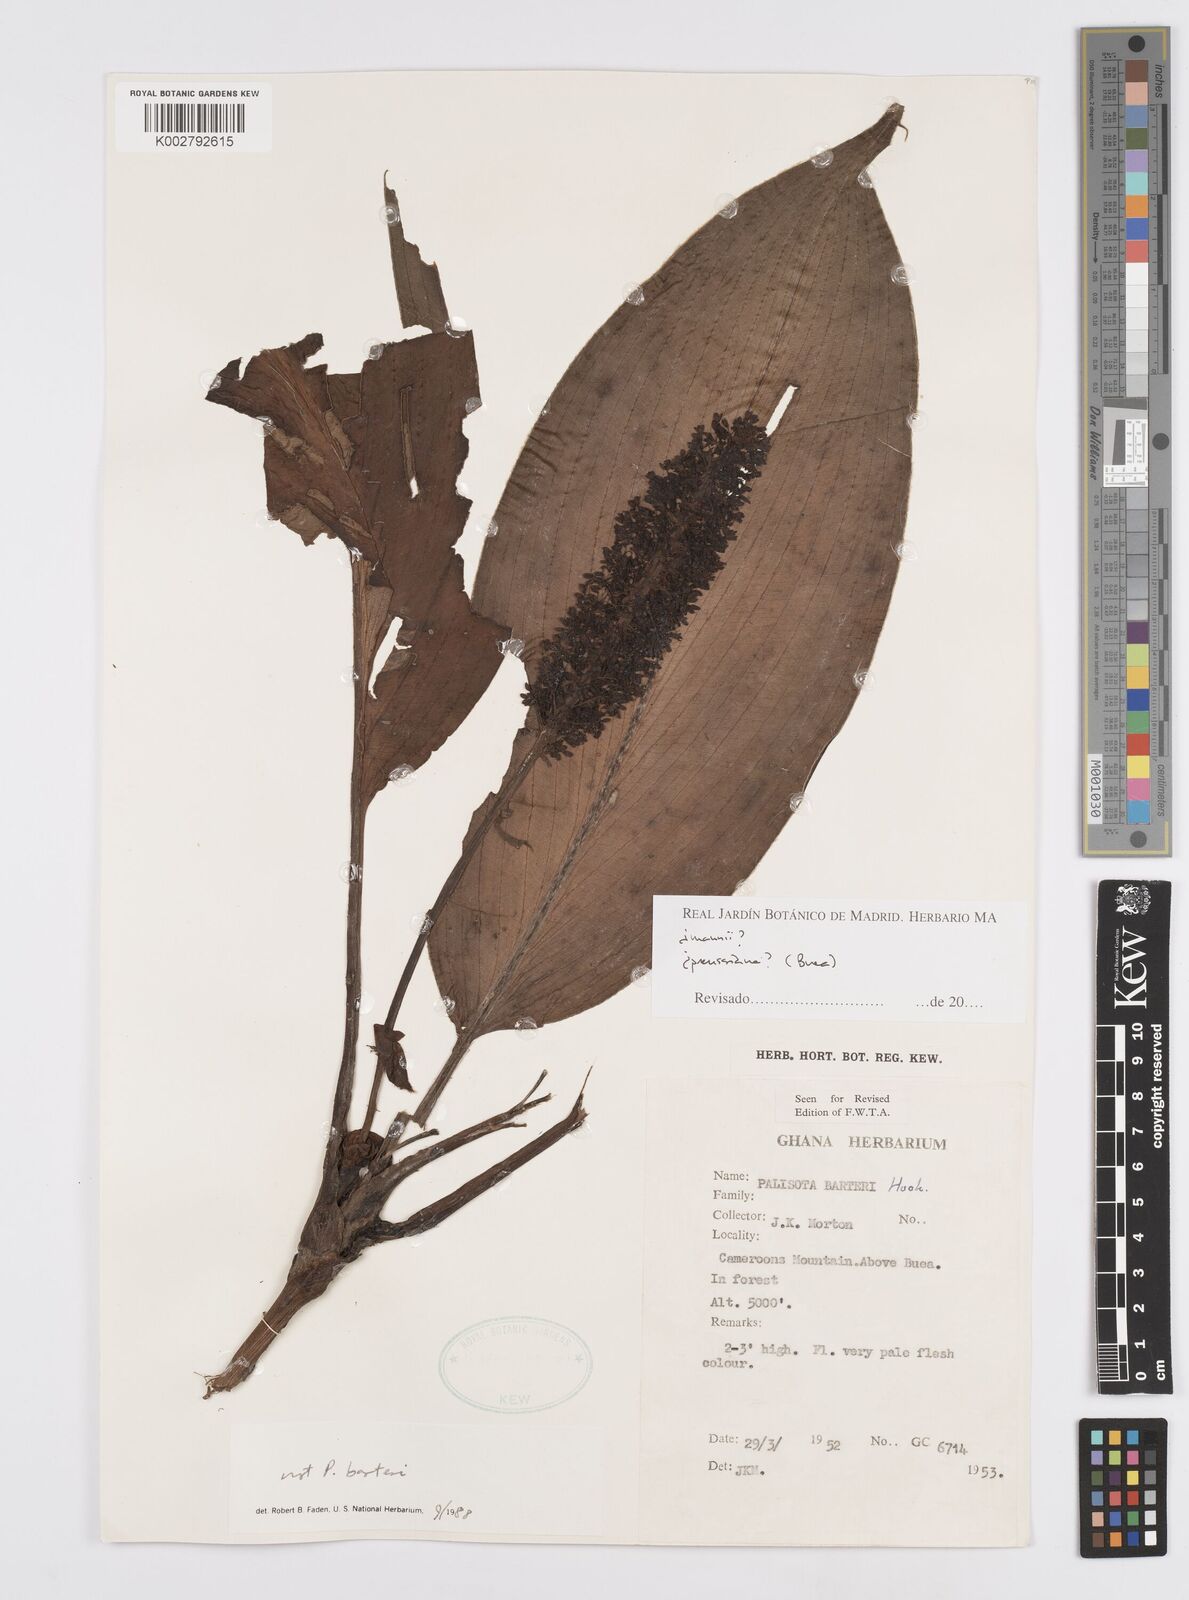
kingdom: Plantae
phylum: Tracheophyta
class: Liliopsida
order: Commelinales
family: Commelinaceae
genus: Palisota
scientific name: Palisota
